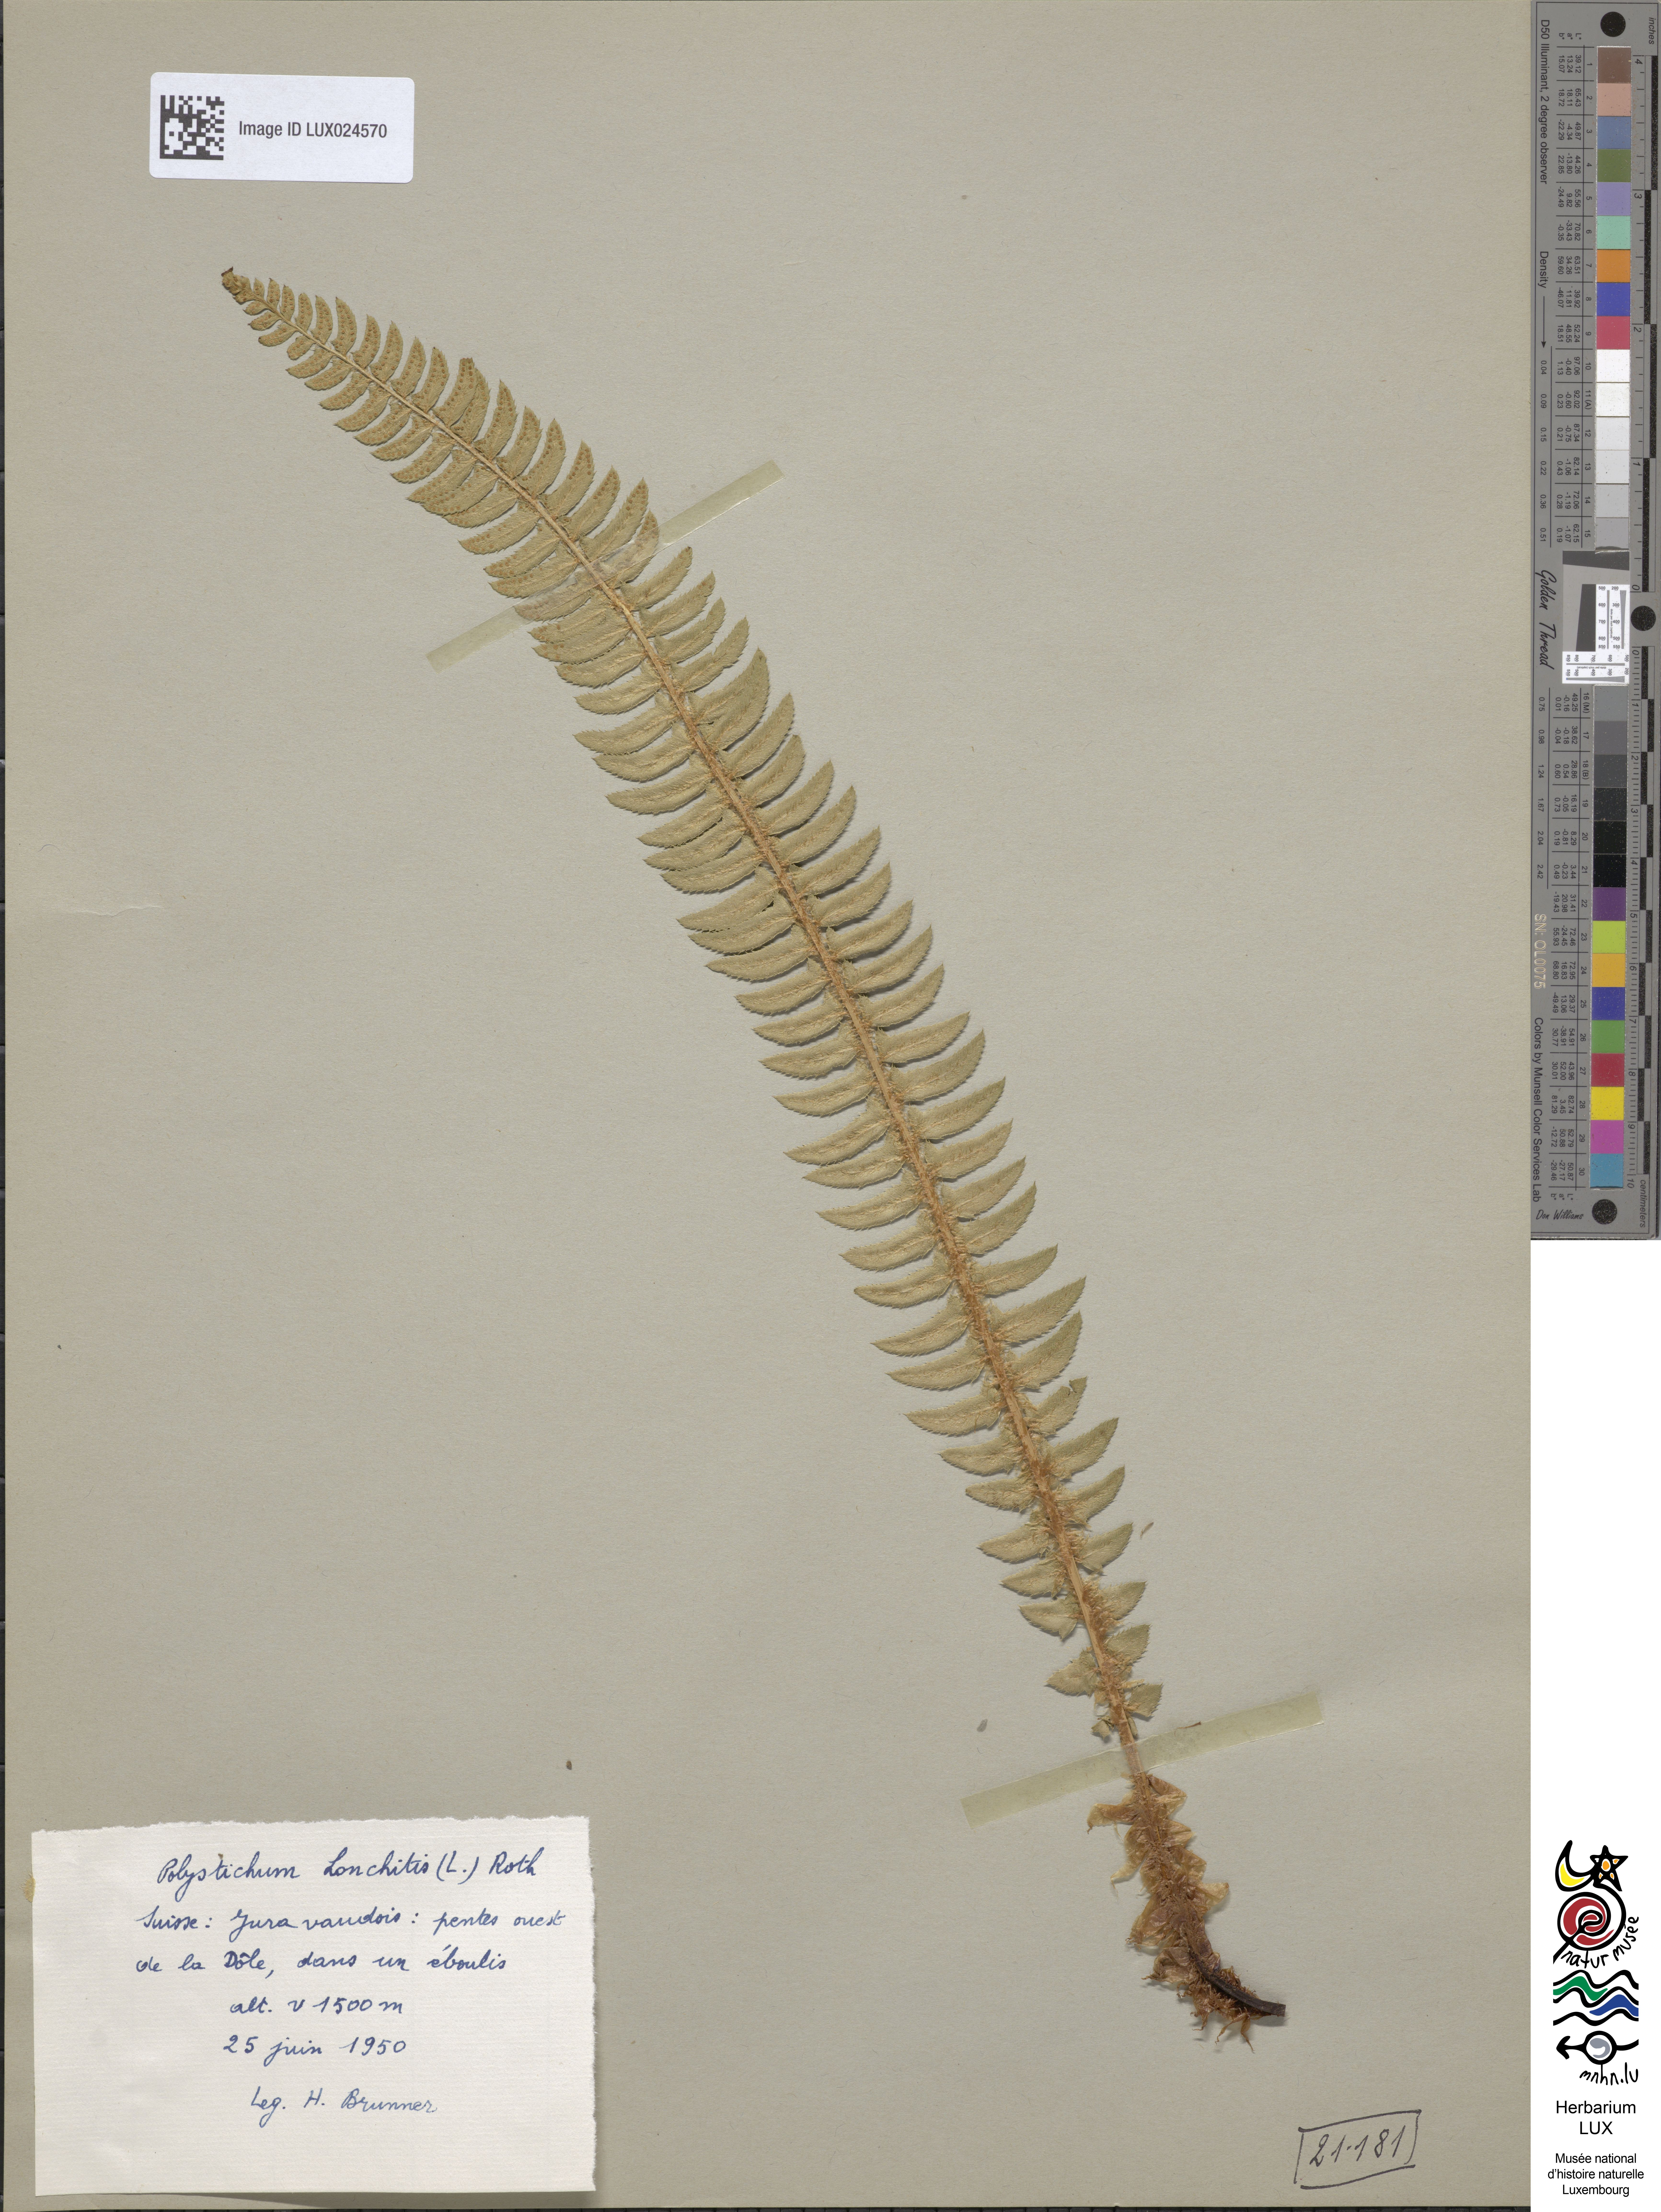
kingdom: Plantae
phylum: Tracheophyta
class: Polypodiopsida
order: Polypodiales
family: Dryopteridaceae
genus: Polystichum
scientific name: Polystichum lonchitis
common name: Holly fern
